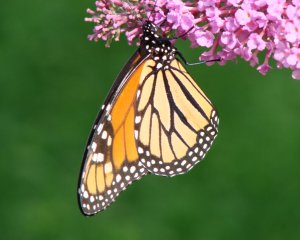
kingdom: Animalia
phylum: Arthropoda
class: Insecta
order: Lepidoptera
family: Nymphalidae
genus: Danaus
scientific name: Danaus plexippus
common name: Monarch
